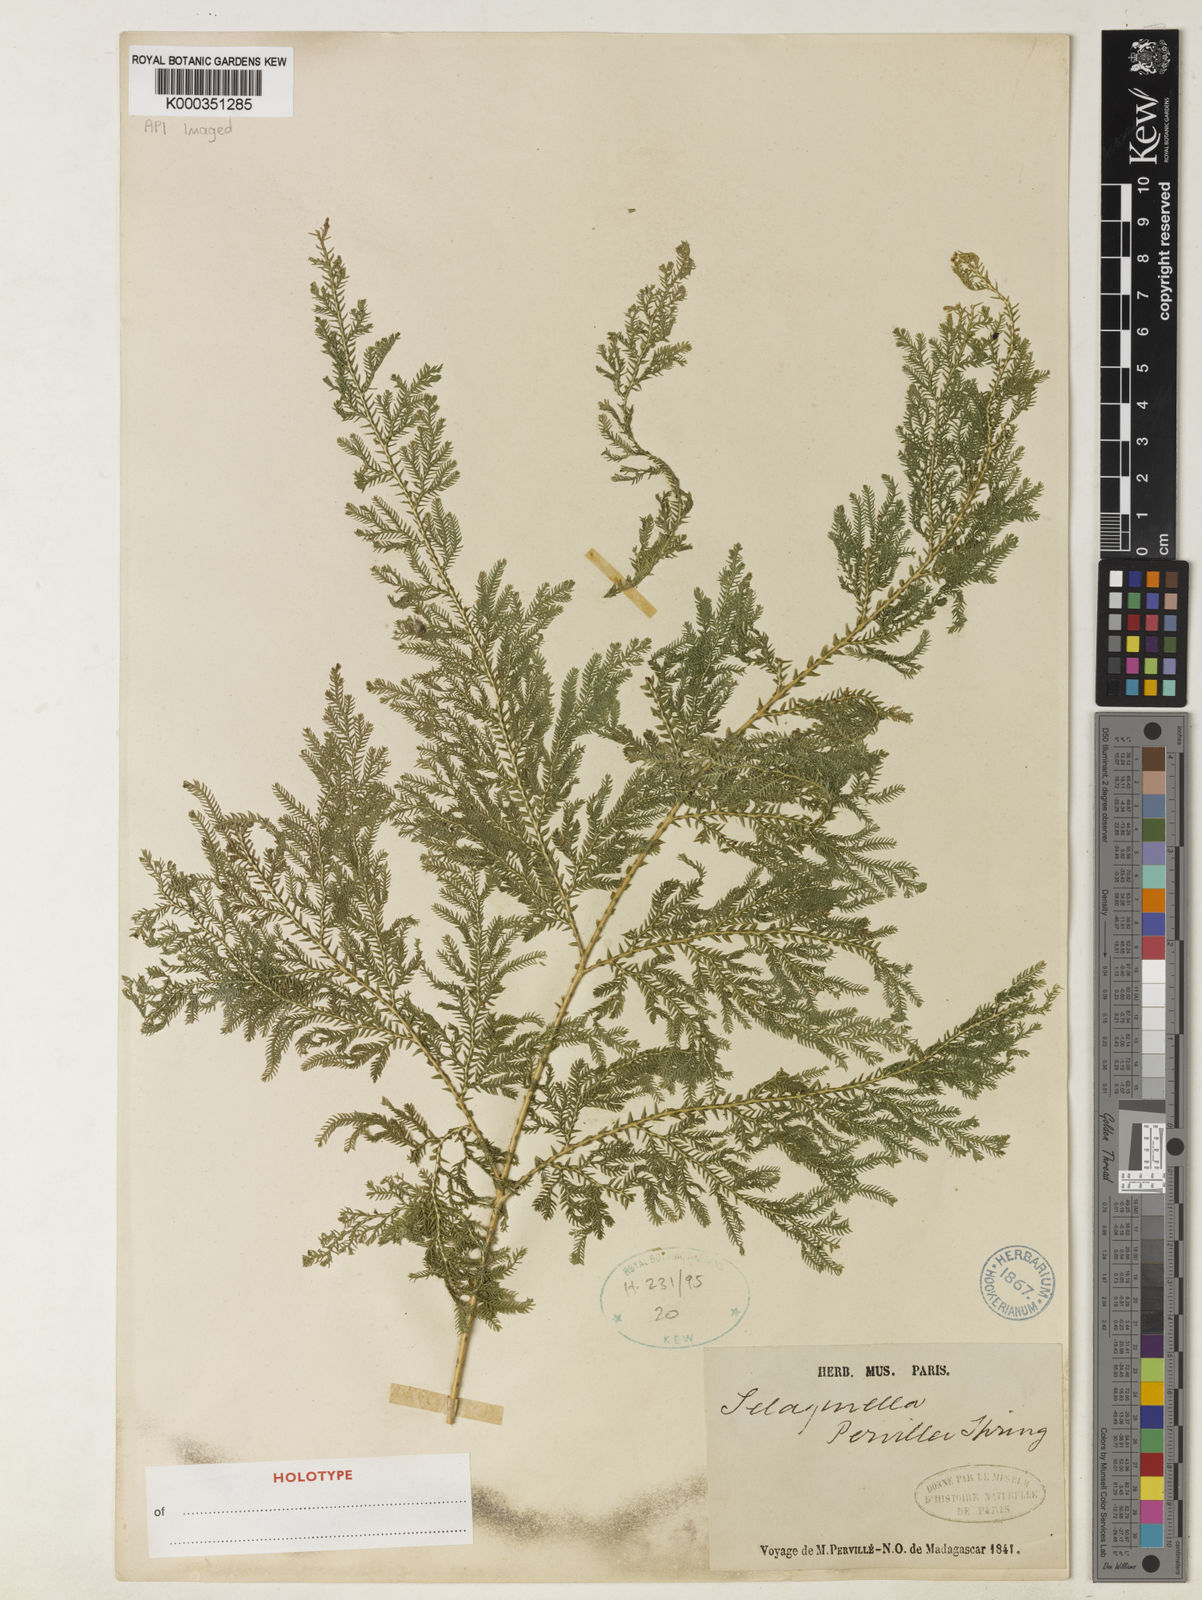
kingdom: Plantae
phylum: Tracheophyta
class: Lycopodiopsida
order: Selaginellales
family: Selaginellaceae
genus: Selaginella
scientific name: Selaginella pervillei
